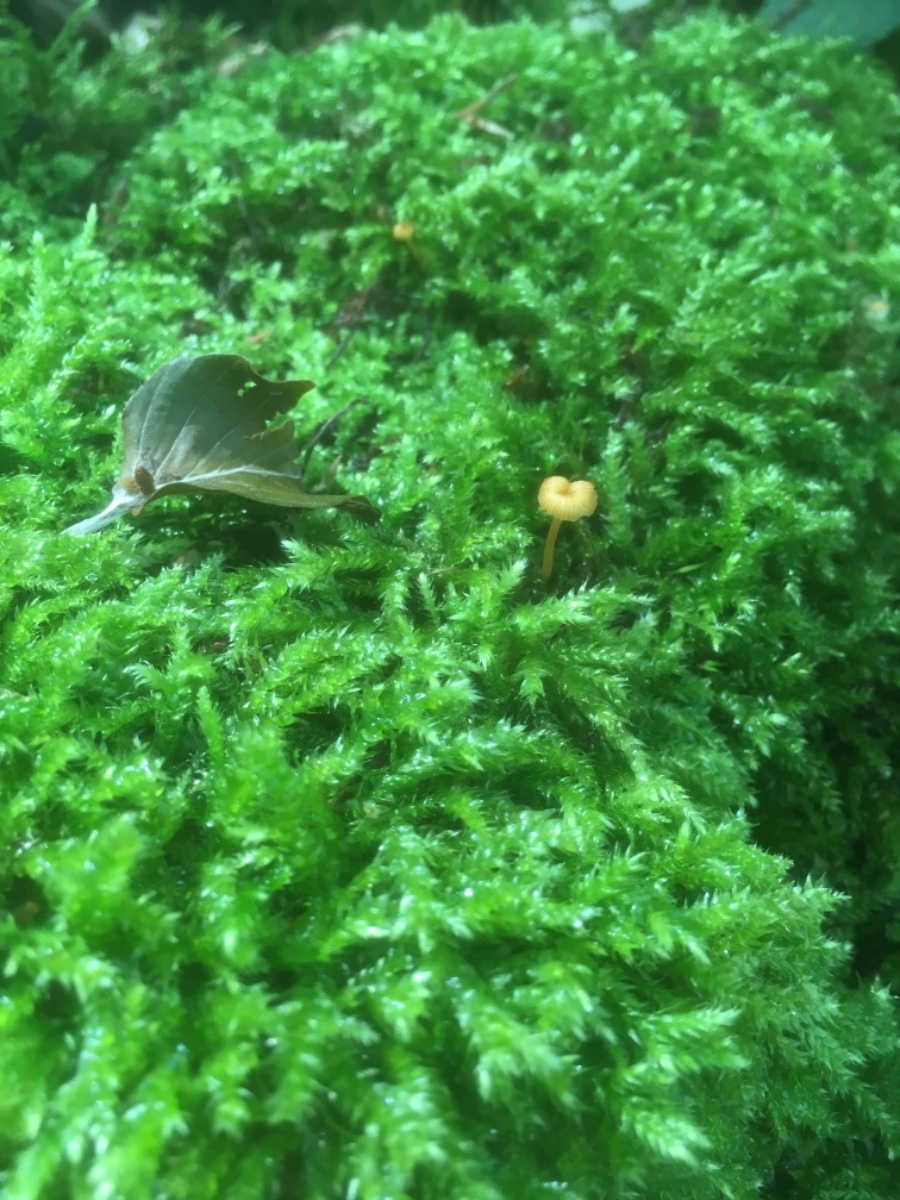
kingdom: Fungi
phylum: Basidiomycota
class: Agaricomycetes
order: Hymenochaetales
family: Rickenellaceae
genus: Rickenella
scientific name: Rickenella fibula
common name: orange mosnavlehat
